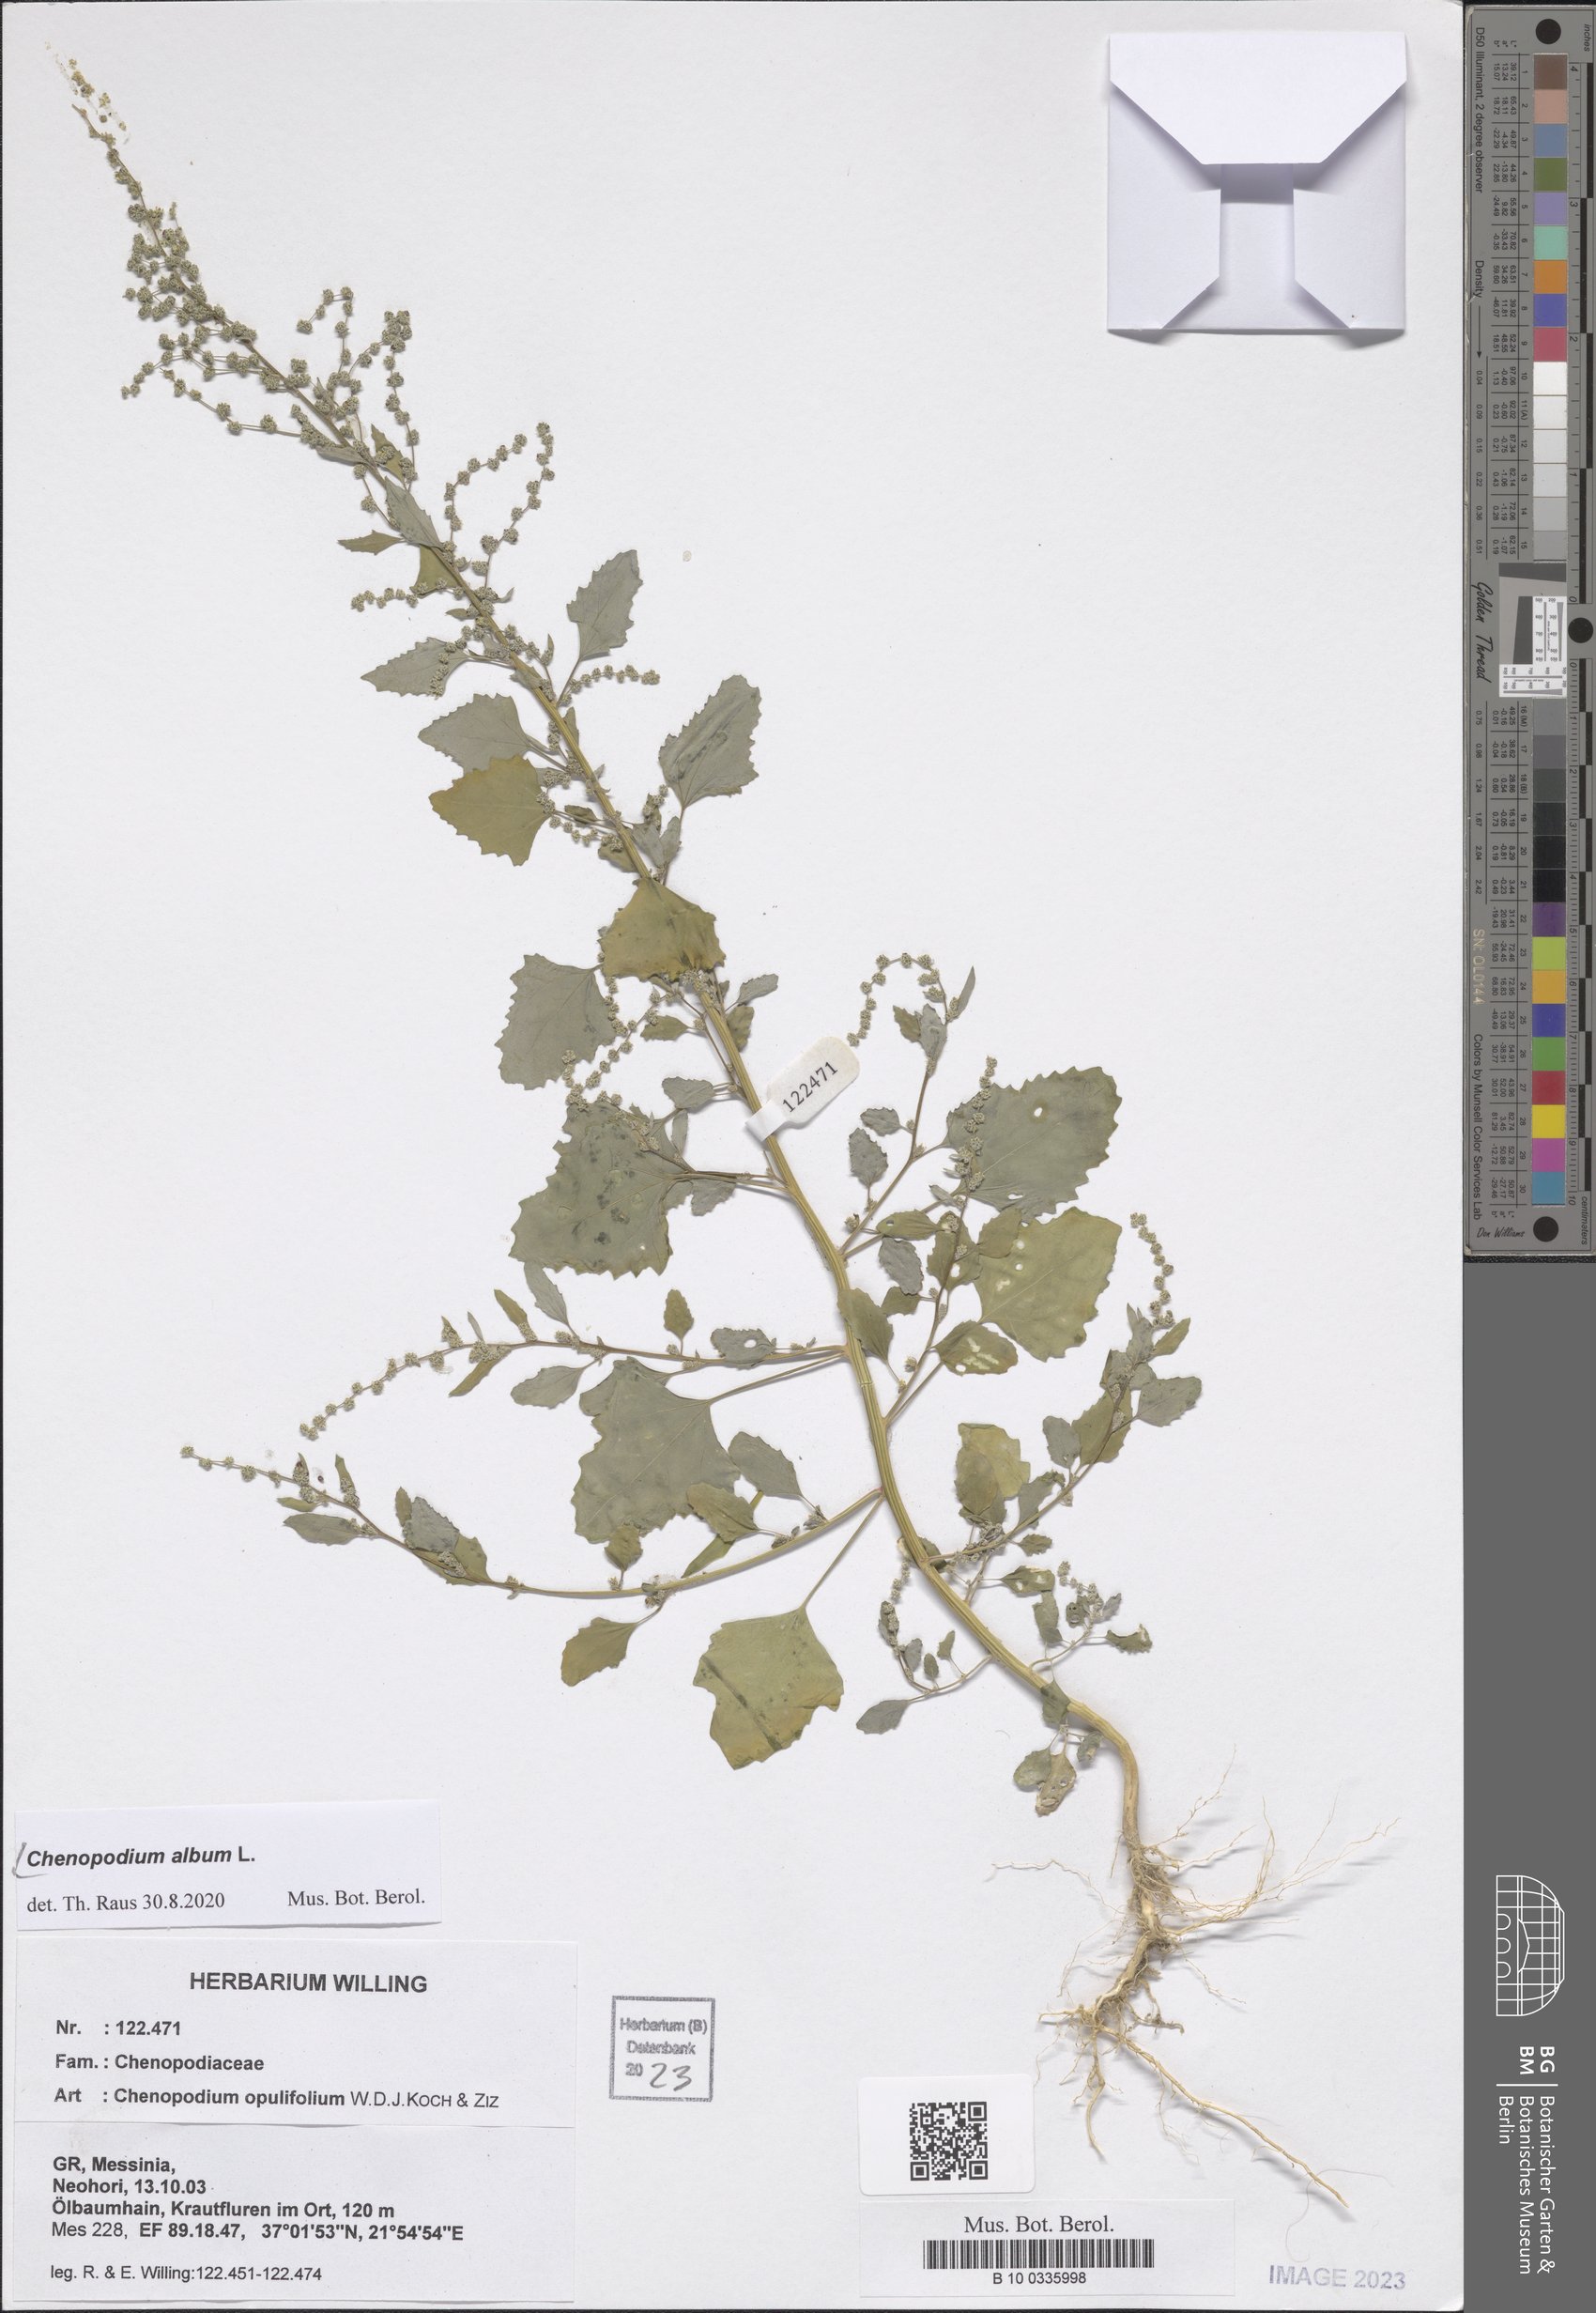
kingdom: Plantae
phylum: Tracheophyta
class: Magnoliopsida
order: Caryophyllales
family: Amaranthaceae
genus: Chenopodium
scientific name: Chenopodium album
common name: Fat-hen
